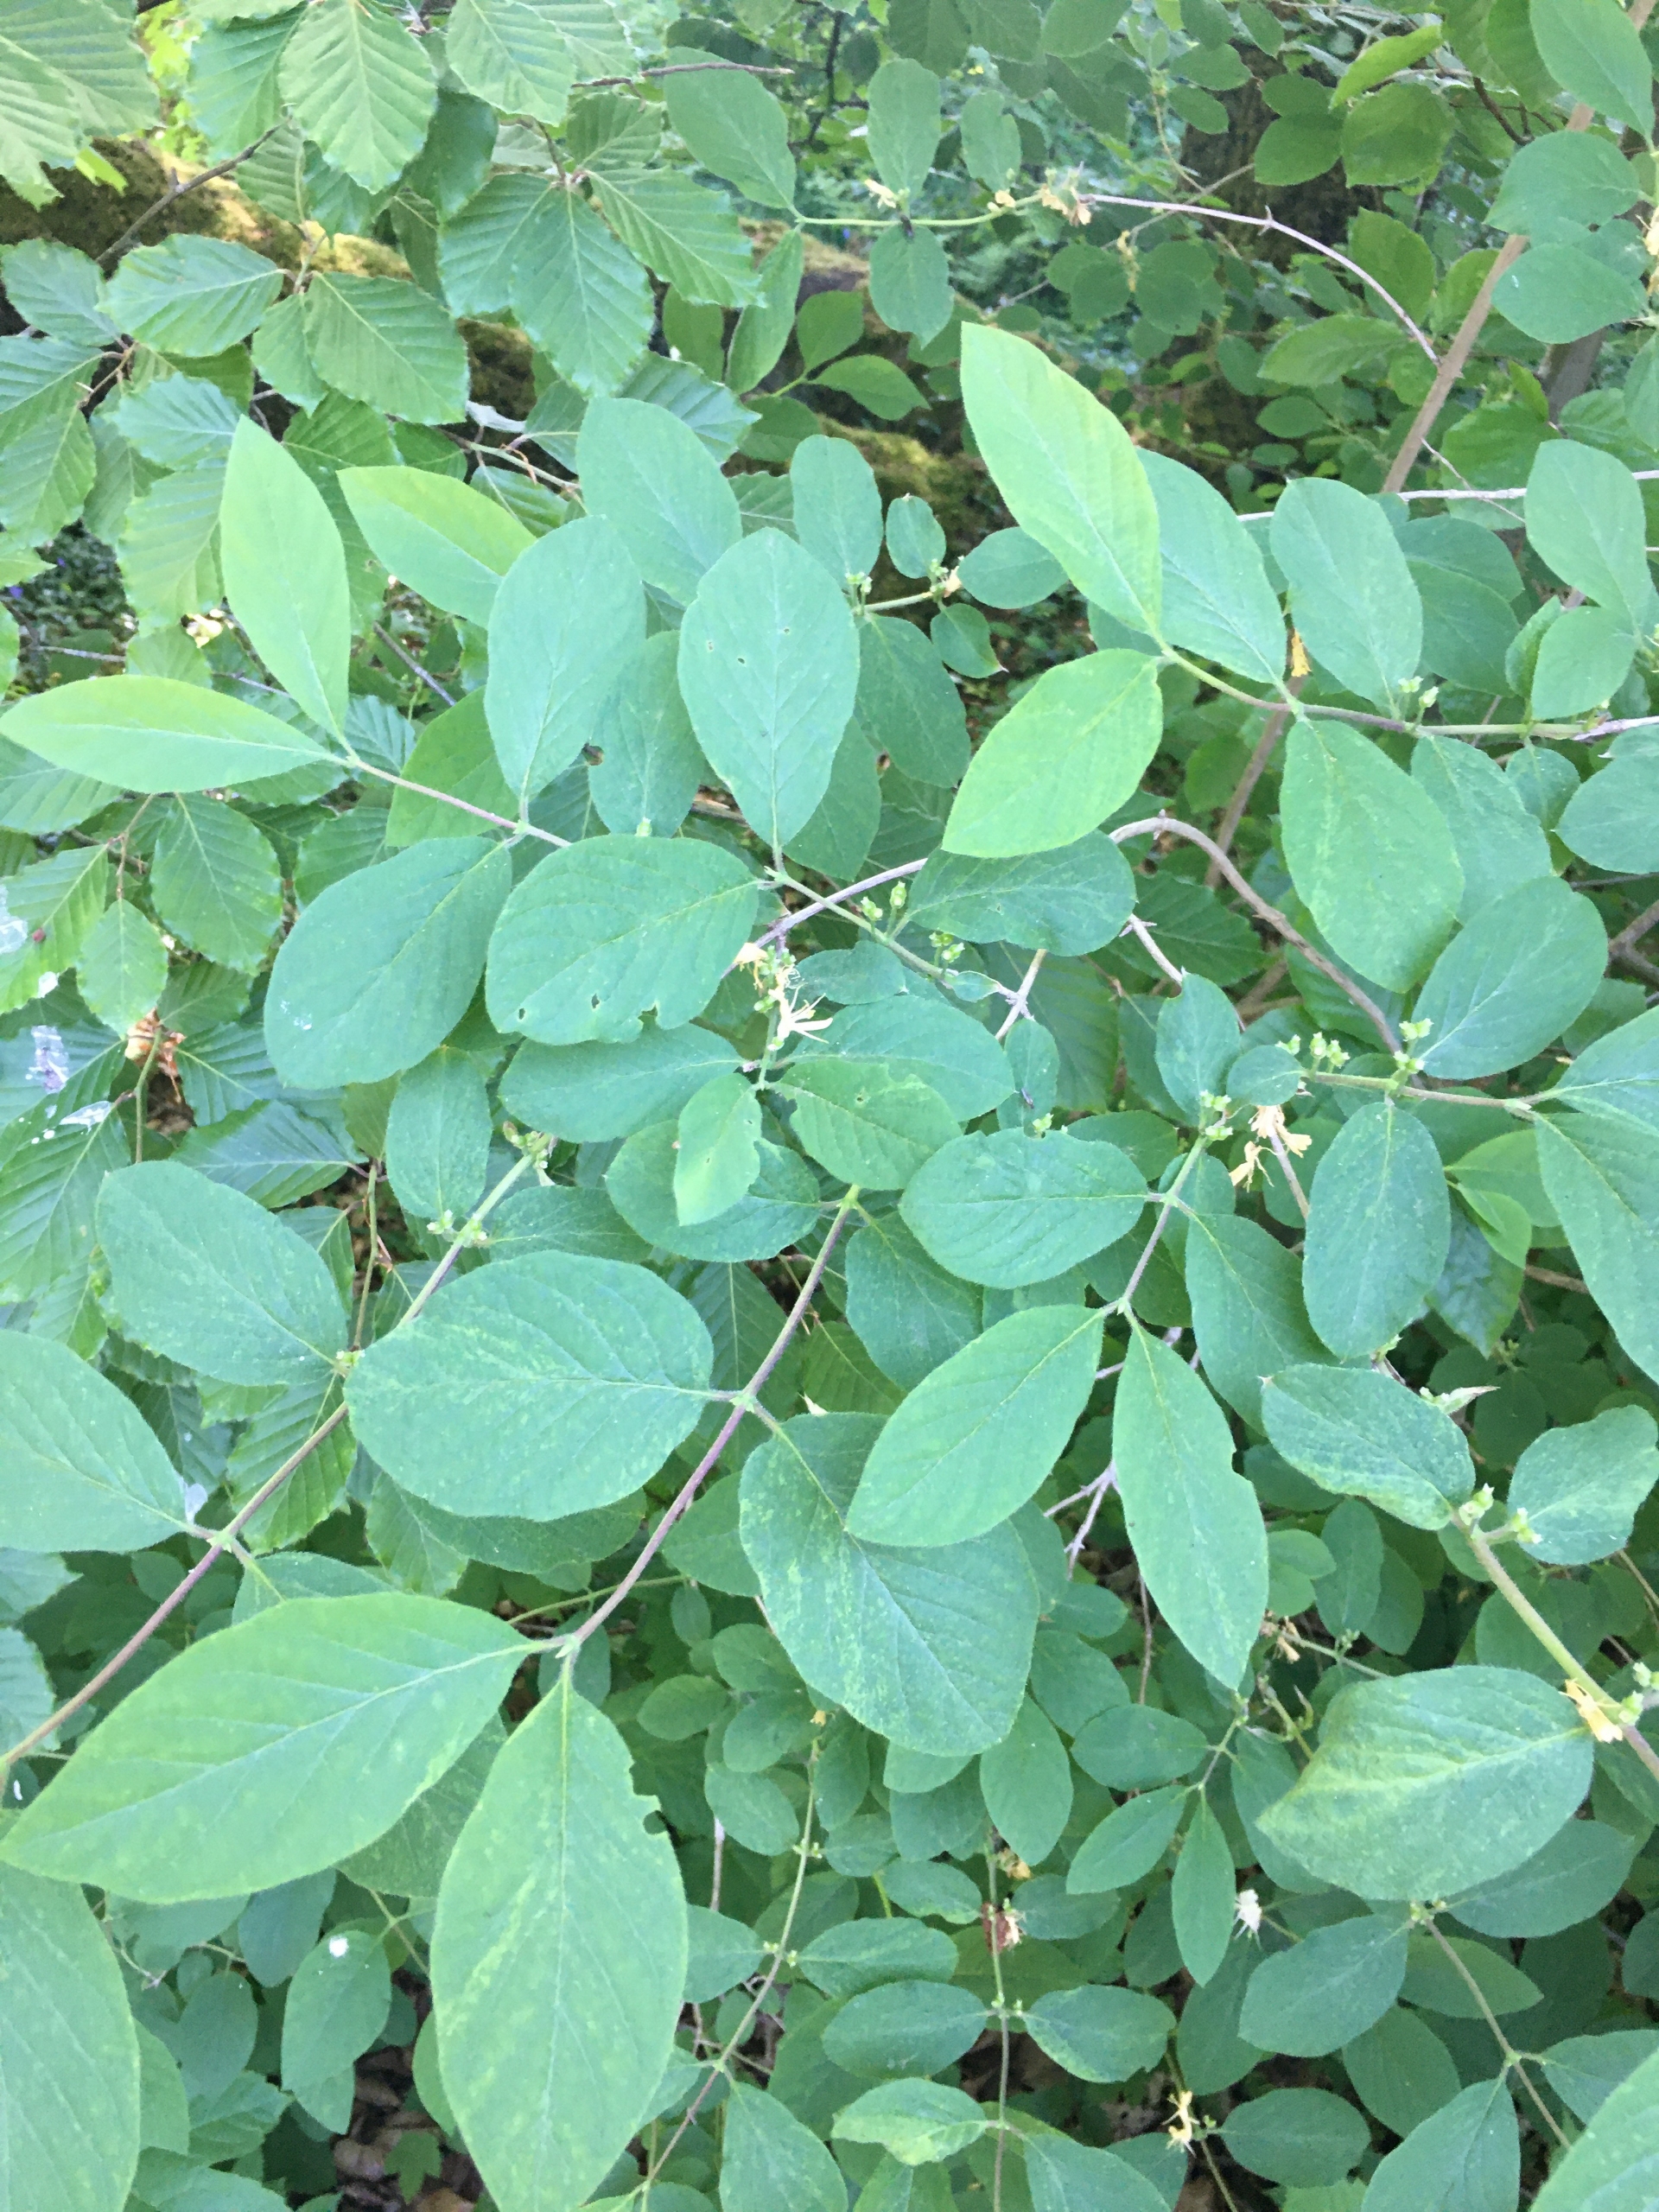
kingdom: Plantae
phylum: Tracheophyta
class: Magnoliopsida
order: Dipsacales
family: Caprifoliaceae
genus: Lonicera
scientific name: Lonicera xylosteum
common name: Dunet gedeblad
